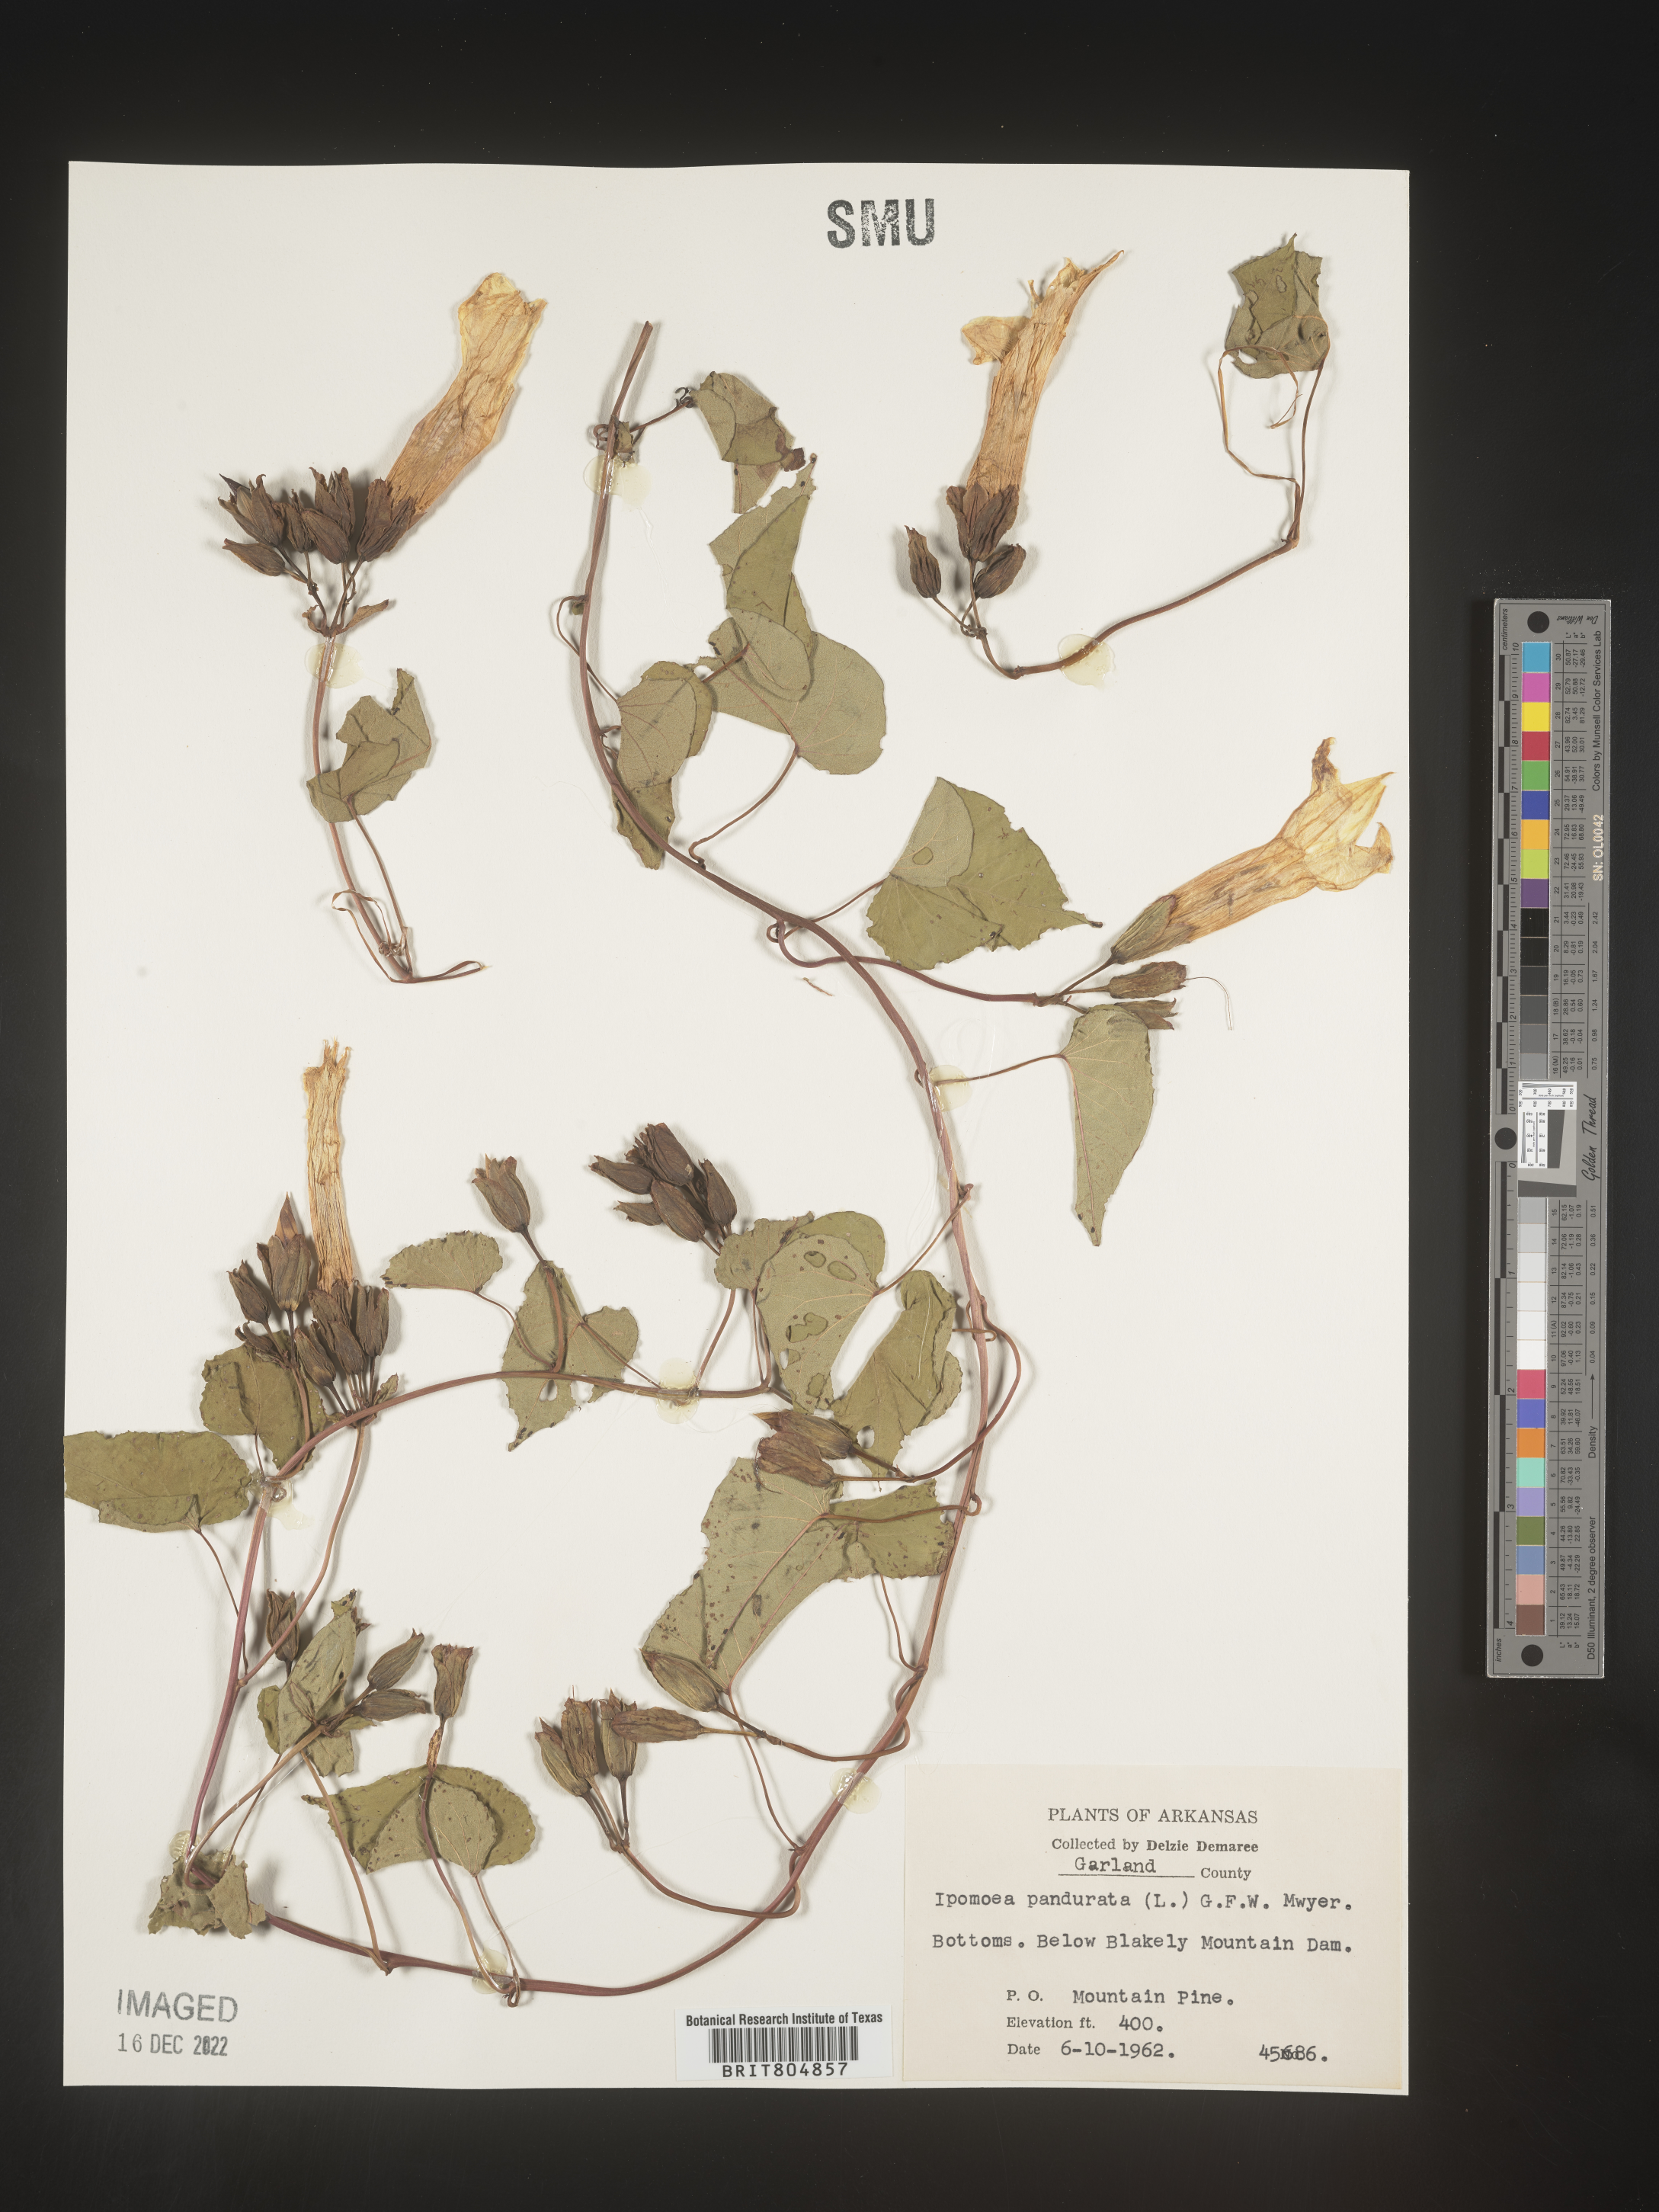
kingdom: Plantae
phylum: Tracheophyta
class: Magnoliopsida
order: Solanales
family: Convolvulaceae
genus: Ipomoea
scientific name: Ipomoea pandurata
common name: Man-of-the-earth
